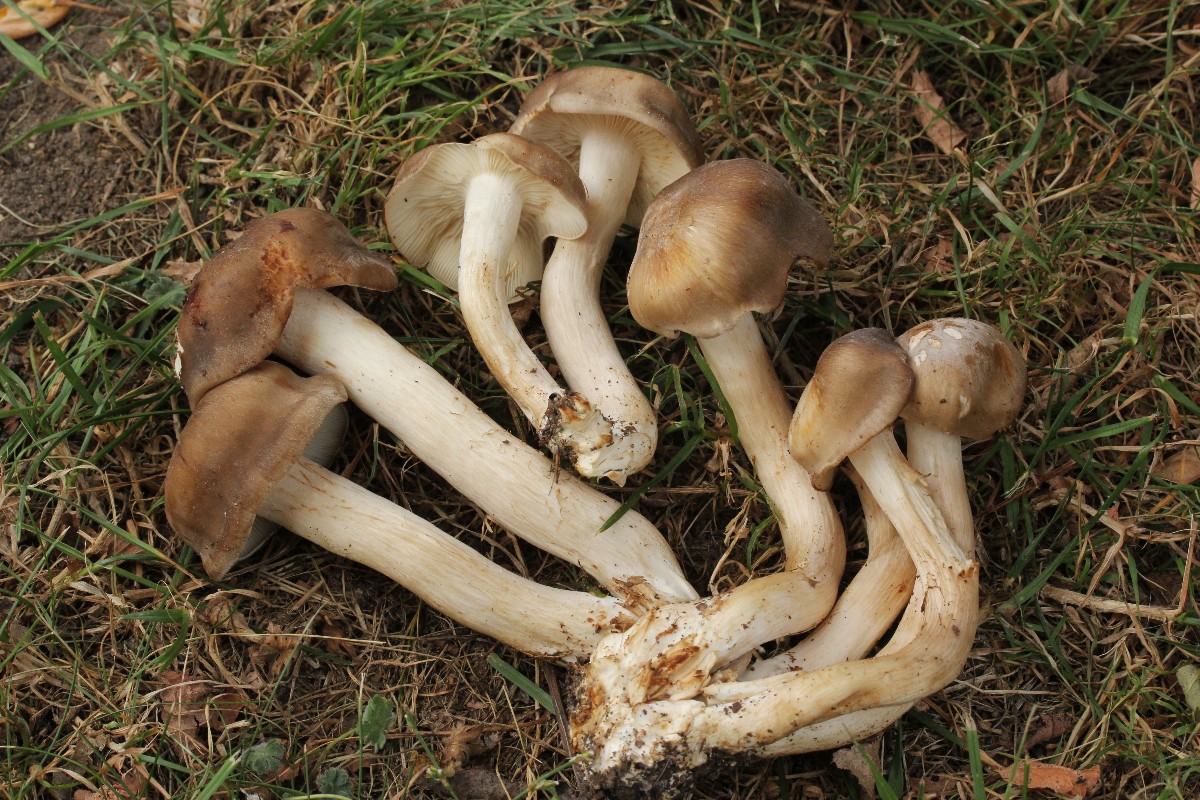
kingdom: Fungi
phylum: Basidiomycota
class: Agaricomycetes
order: Agaricales
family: Lyophyllaceae
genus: Lyophyllum
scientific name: Lyophyllum decastes
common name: røggrå gråblad
